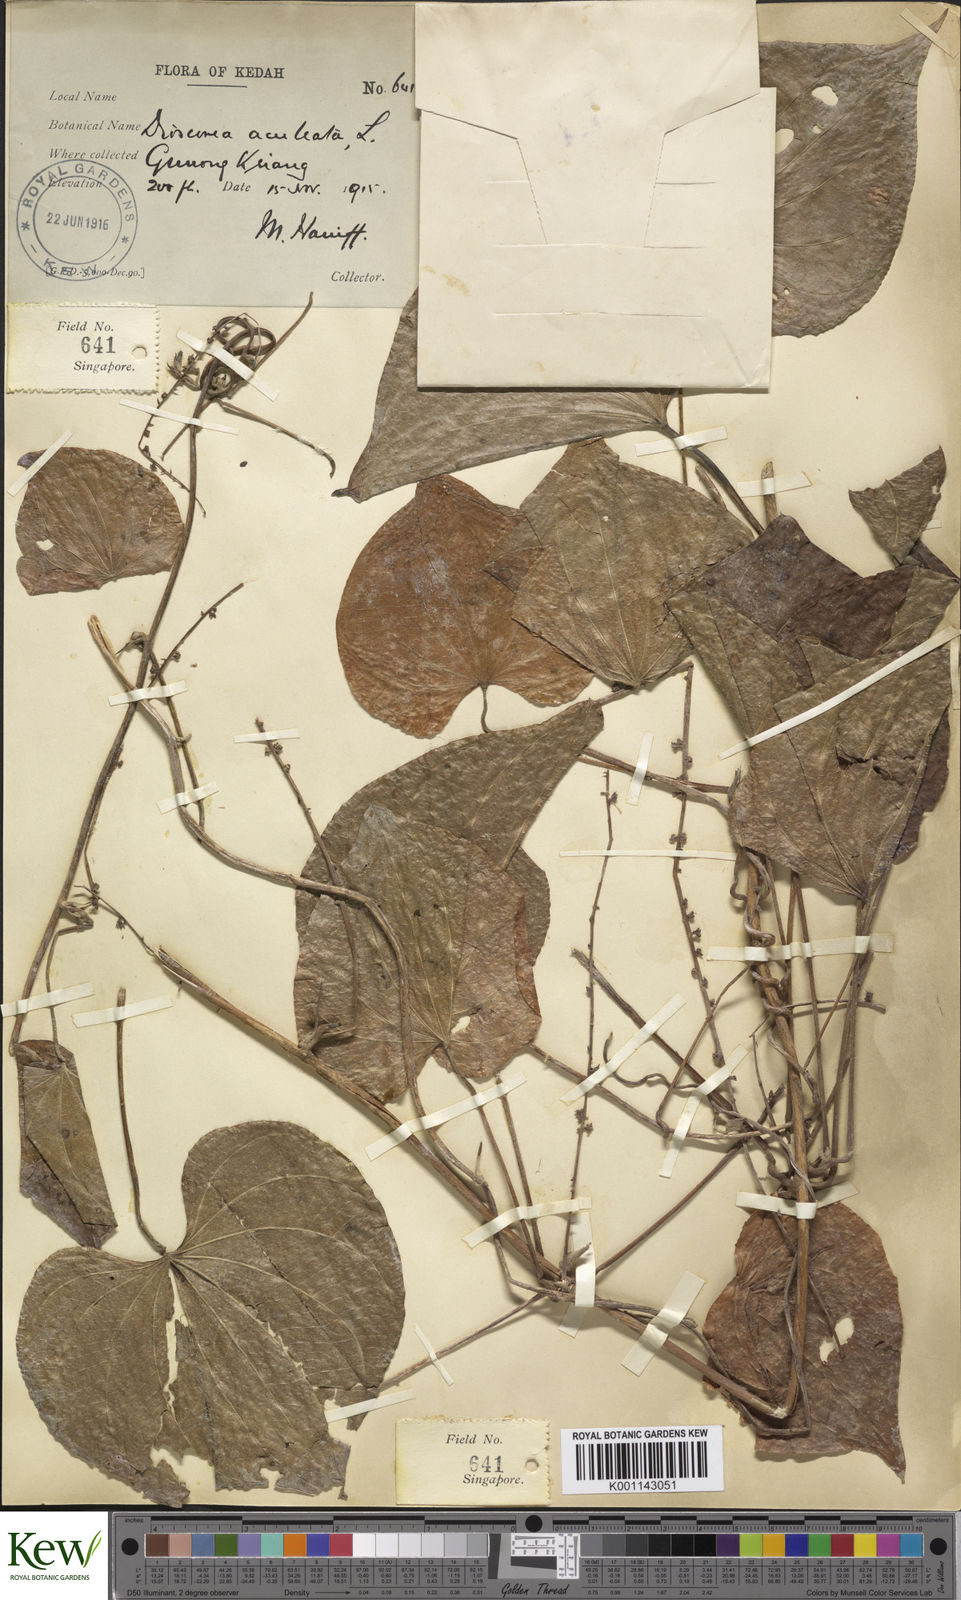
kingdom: Plantae
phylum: Tracheophyta
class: Liliopsida
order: Dioscoreales
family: Dioscoreaceae
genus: Dioscorea
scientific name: Dioscorea esculenta
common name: Chinese yam
